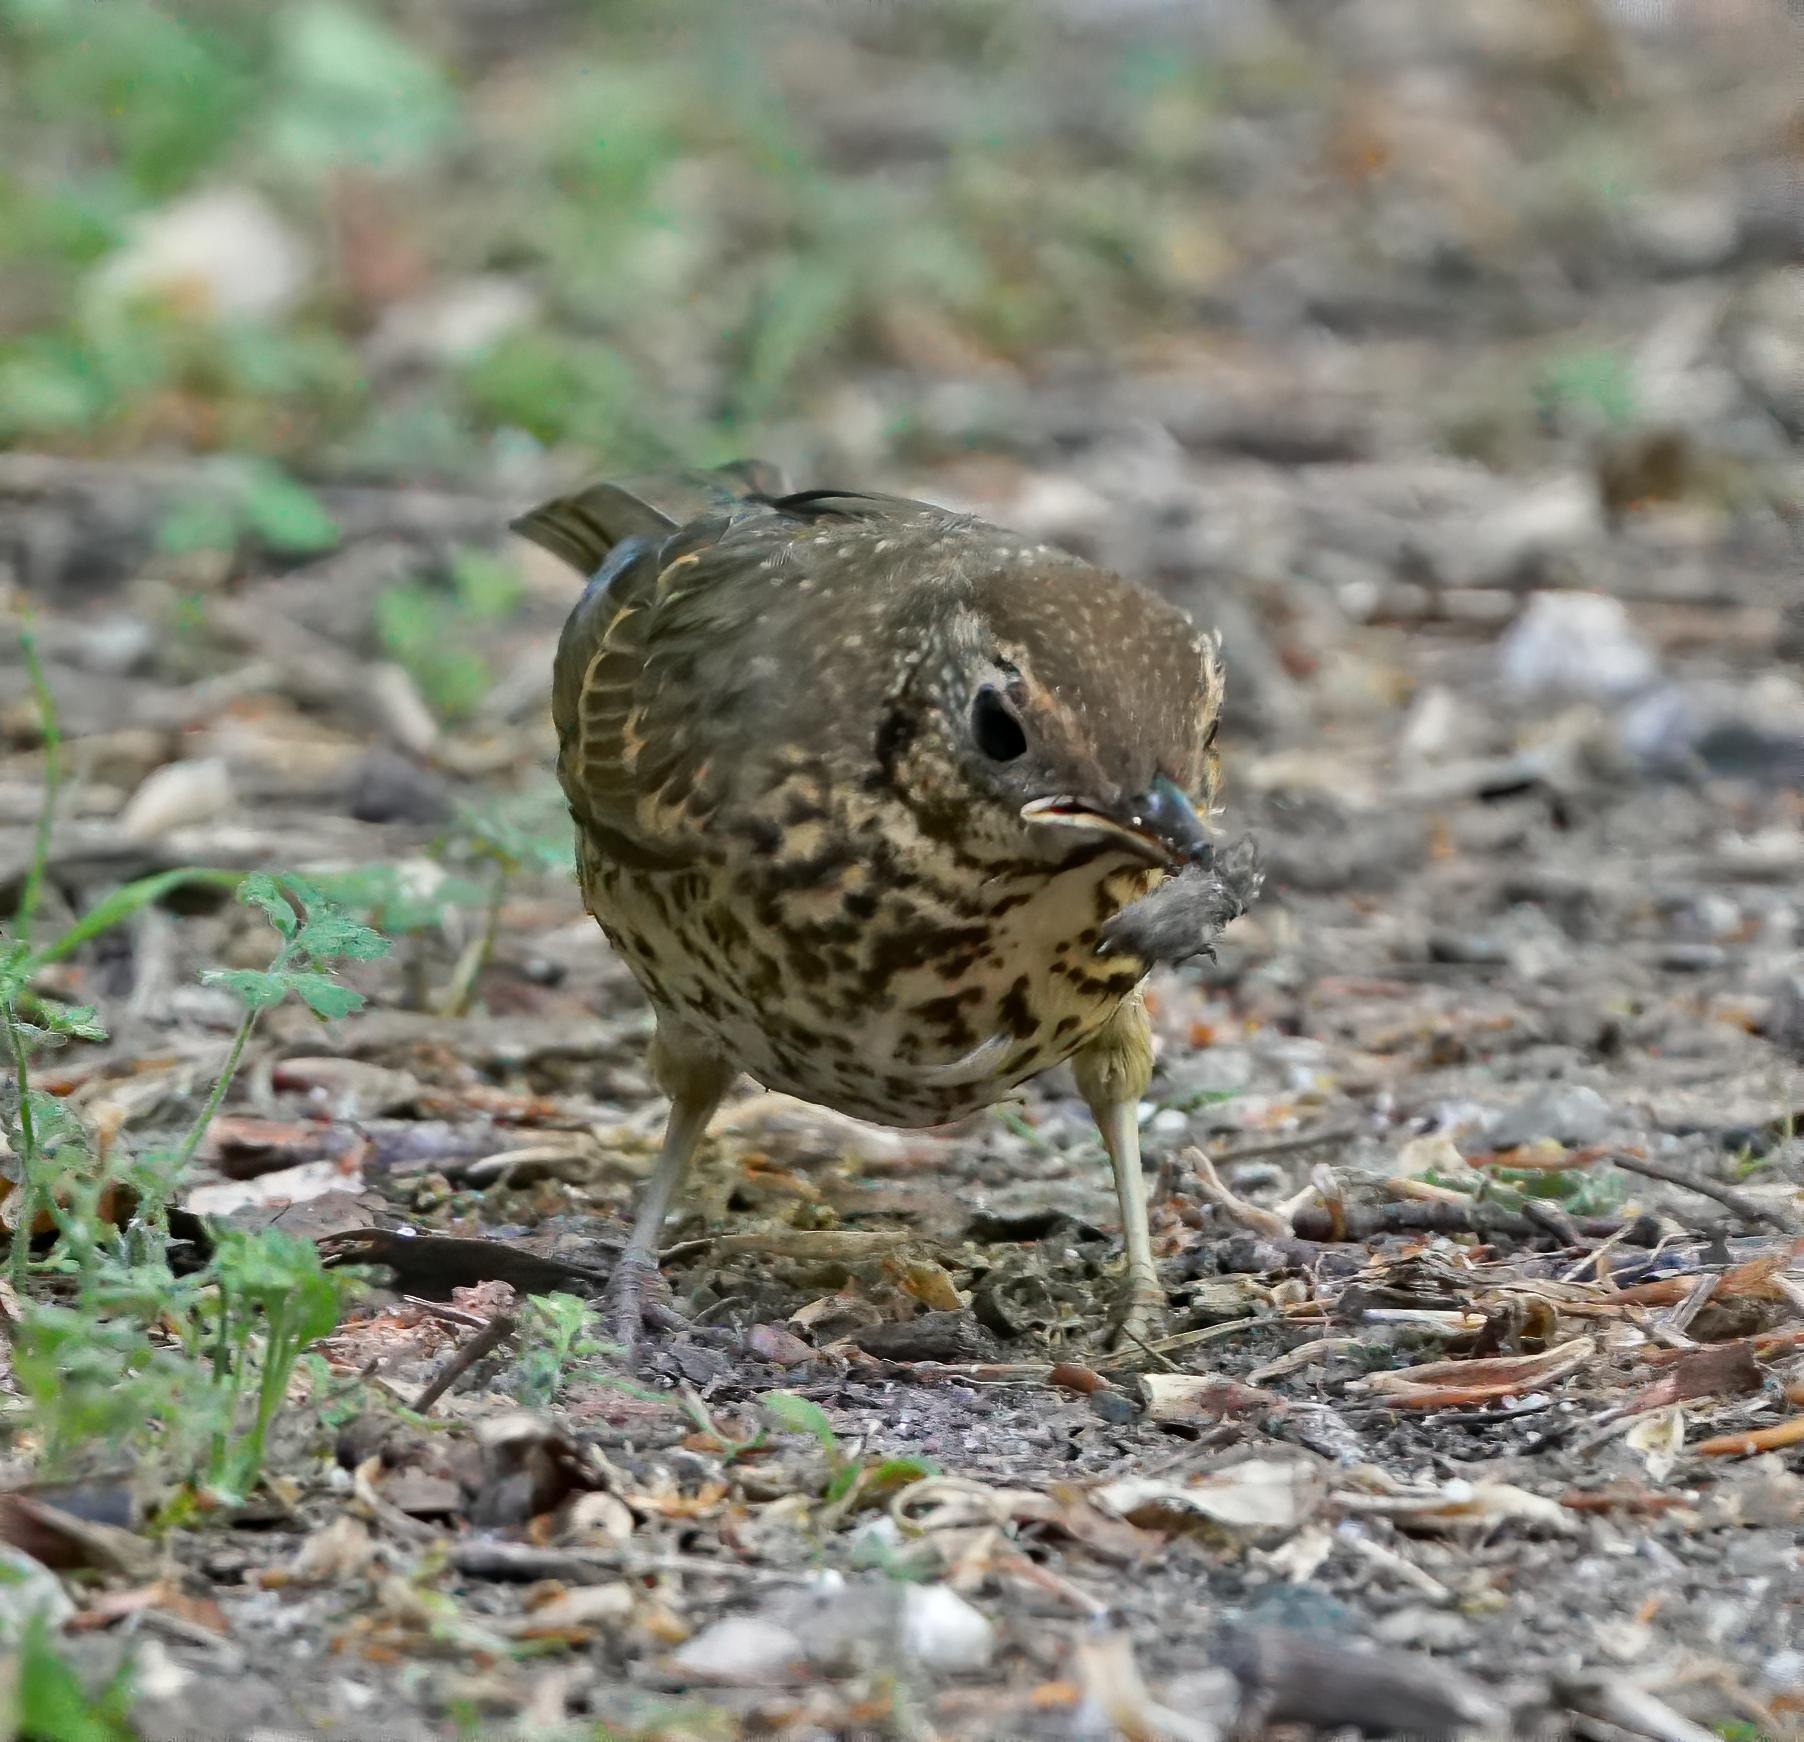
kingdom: Animalia
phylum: Chordata
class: Aves
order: Passeriformes
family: Turdidae
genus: Turdus
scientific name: Turdus philomelos
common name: Sangdrossel
